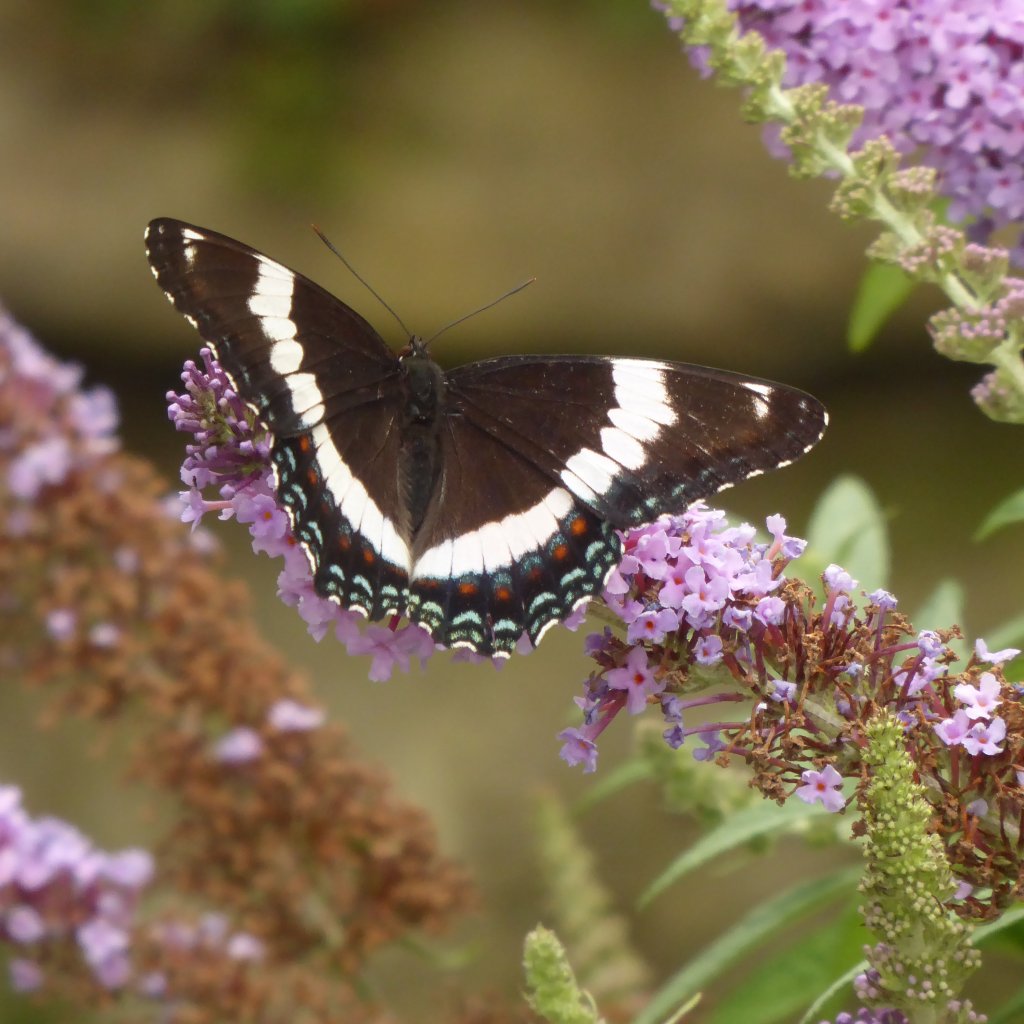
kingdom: Animalia
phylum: Arthropoda
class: Insecta
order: Lepidoptera
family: Nymphalidae
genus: Limenitis
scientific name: Limenitis arthemis
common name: Red-spotted Admiral
